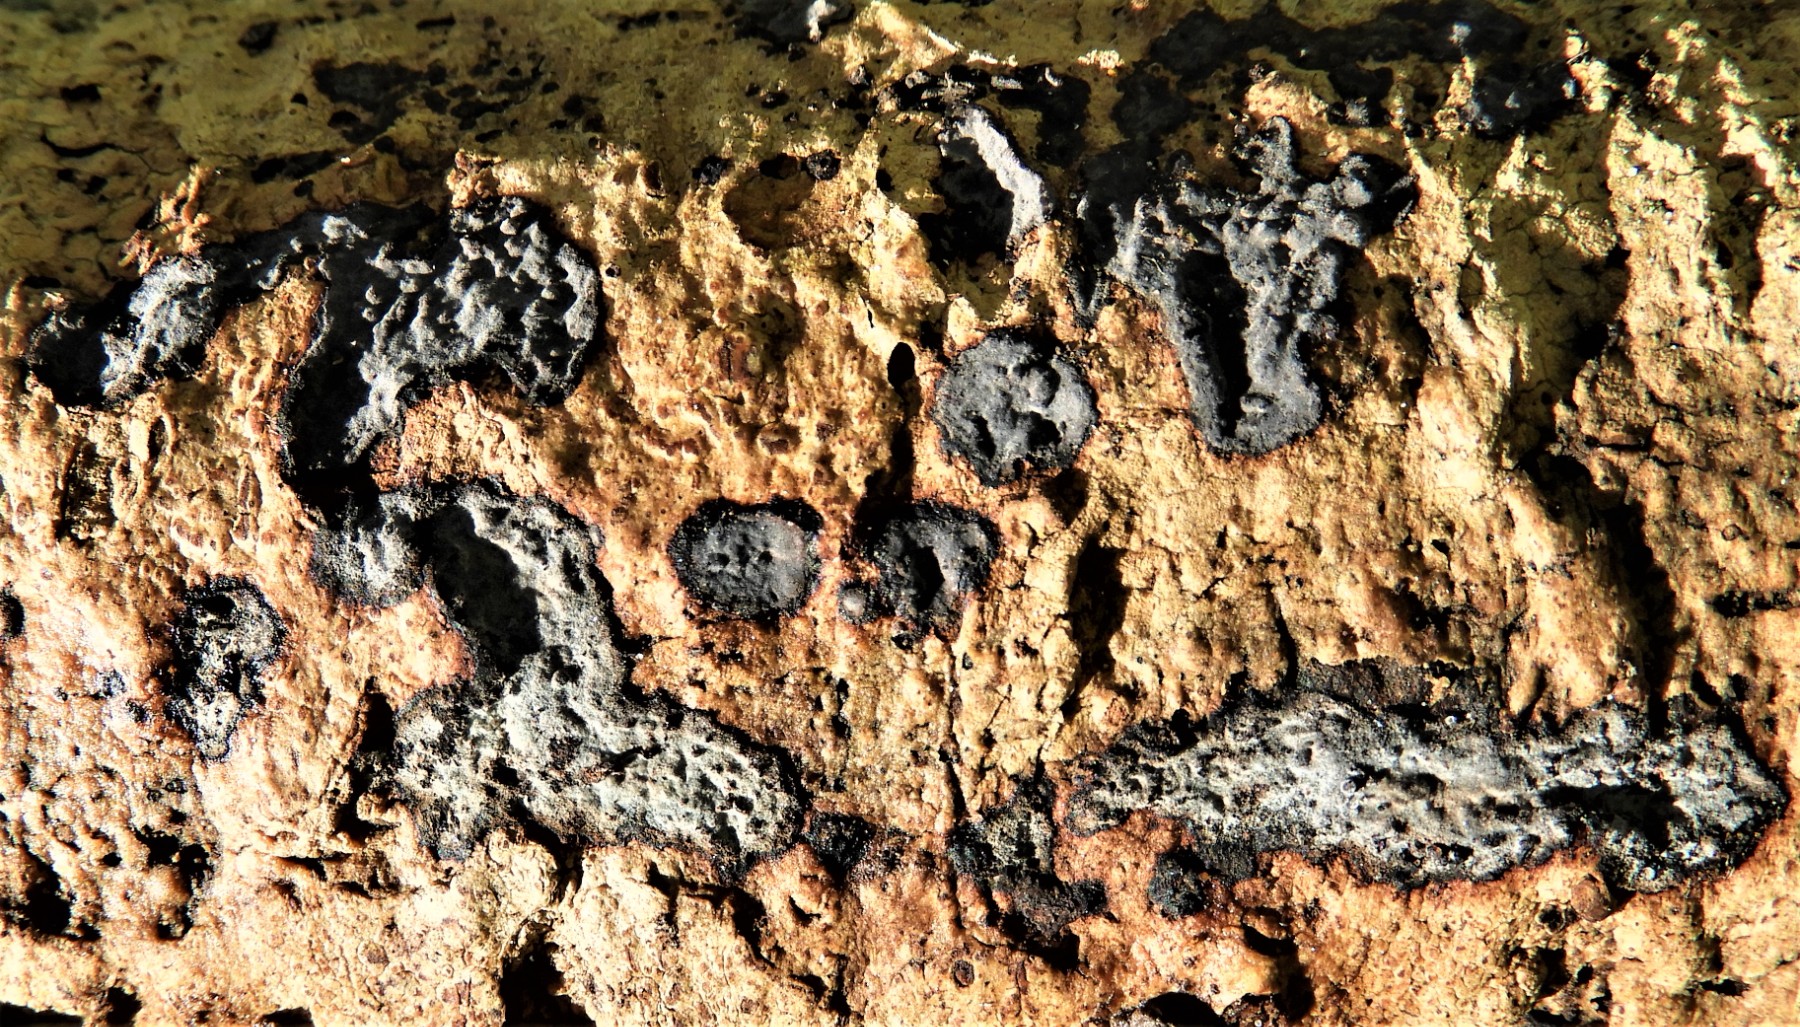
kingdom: Fungi
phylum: Basidiomycota
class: Agaricomycetes
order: Russulales
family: Peniophoraceae
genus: Peniophora
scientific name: Peniophora limitata
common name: mørkrandet voksskind
